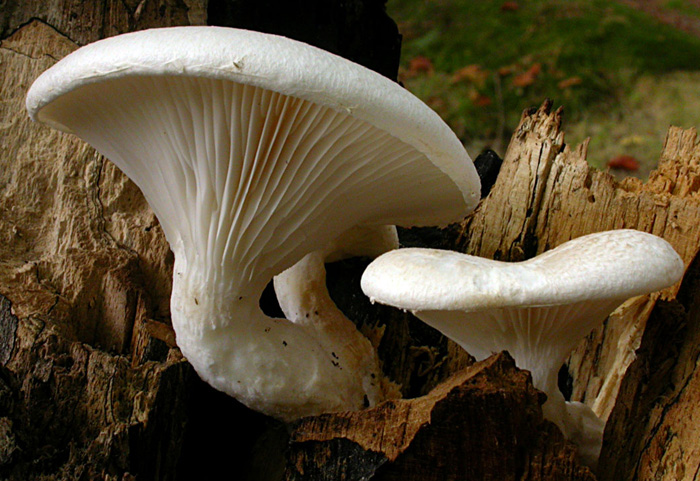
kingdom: Fungi
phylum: Basidiomycota
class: Agaricomycetes
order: Agaricales
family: Pleurotaceae
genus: Pleurotus
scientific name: Pleurotus dryinus
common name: korkagtig østershat
